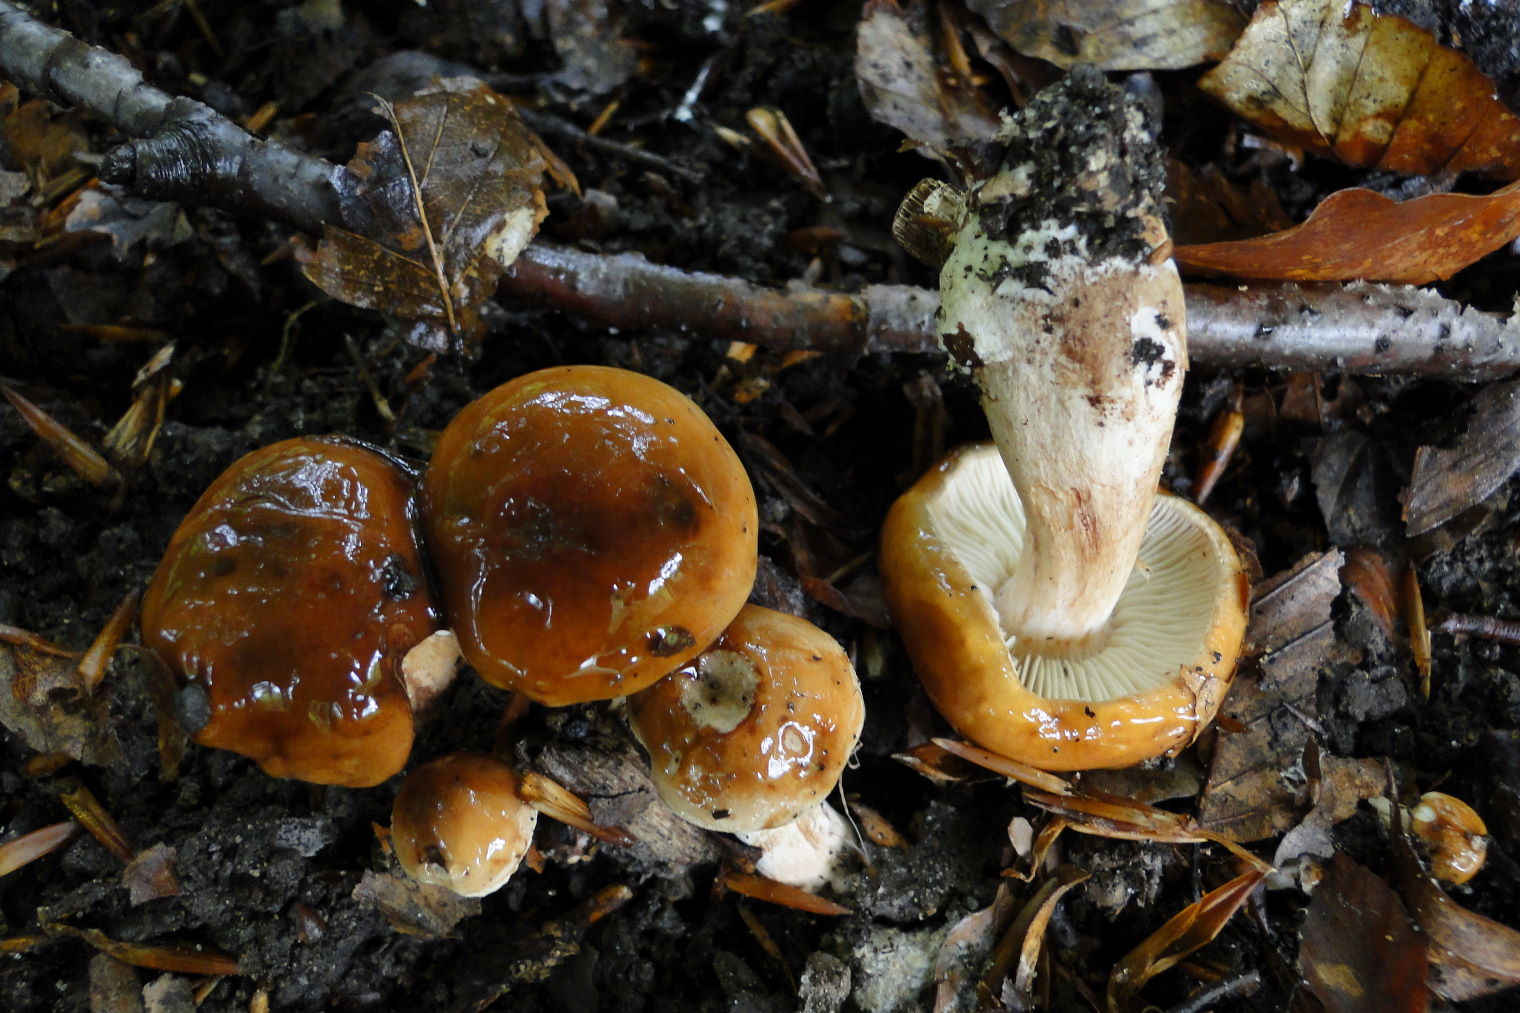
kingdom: Fungi
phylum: Basidiomycota
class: Agaricomycetes
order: Agaricales
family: Tricholomataceae
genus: Tricholoma
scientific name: Tricholoma ustale
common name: sveden ridderhat
